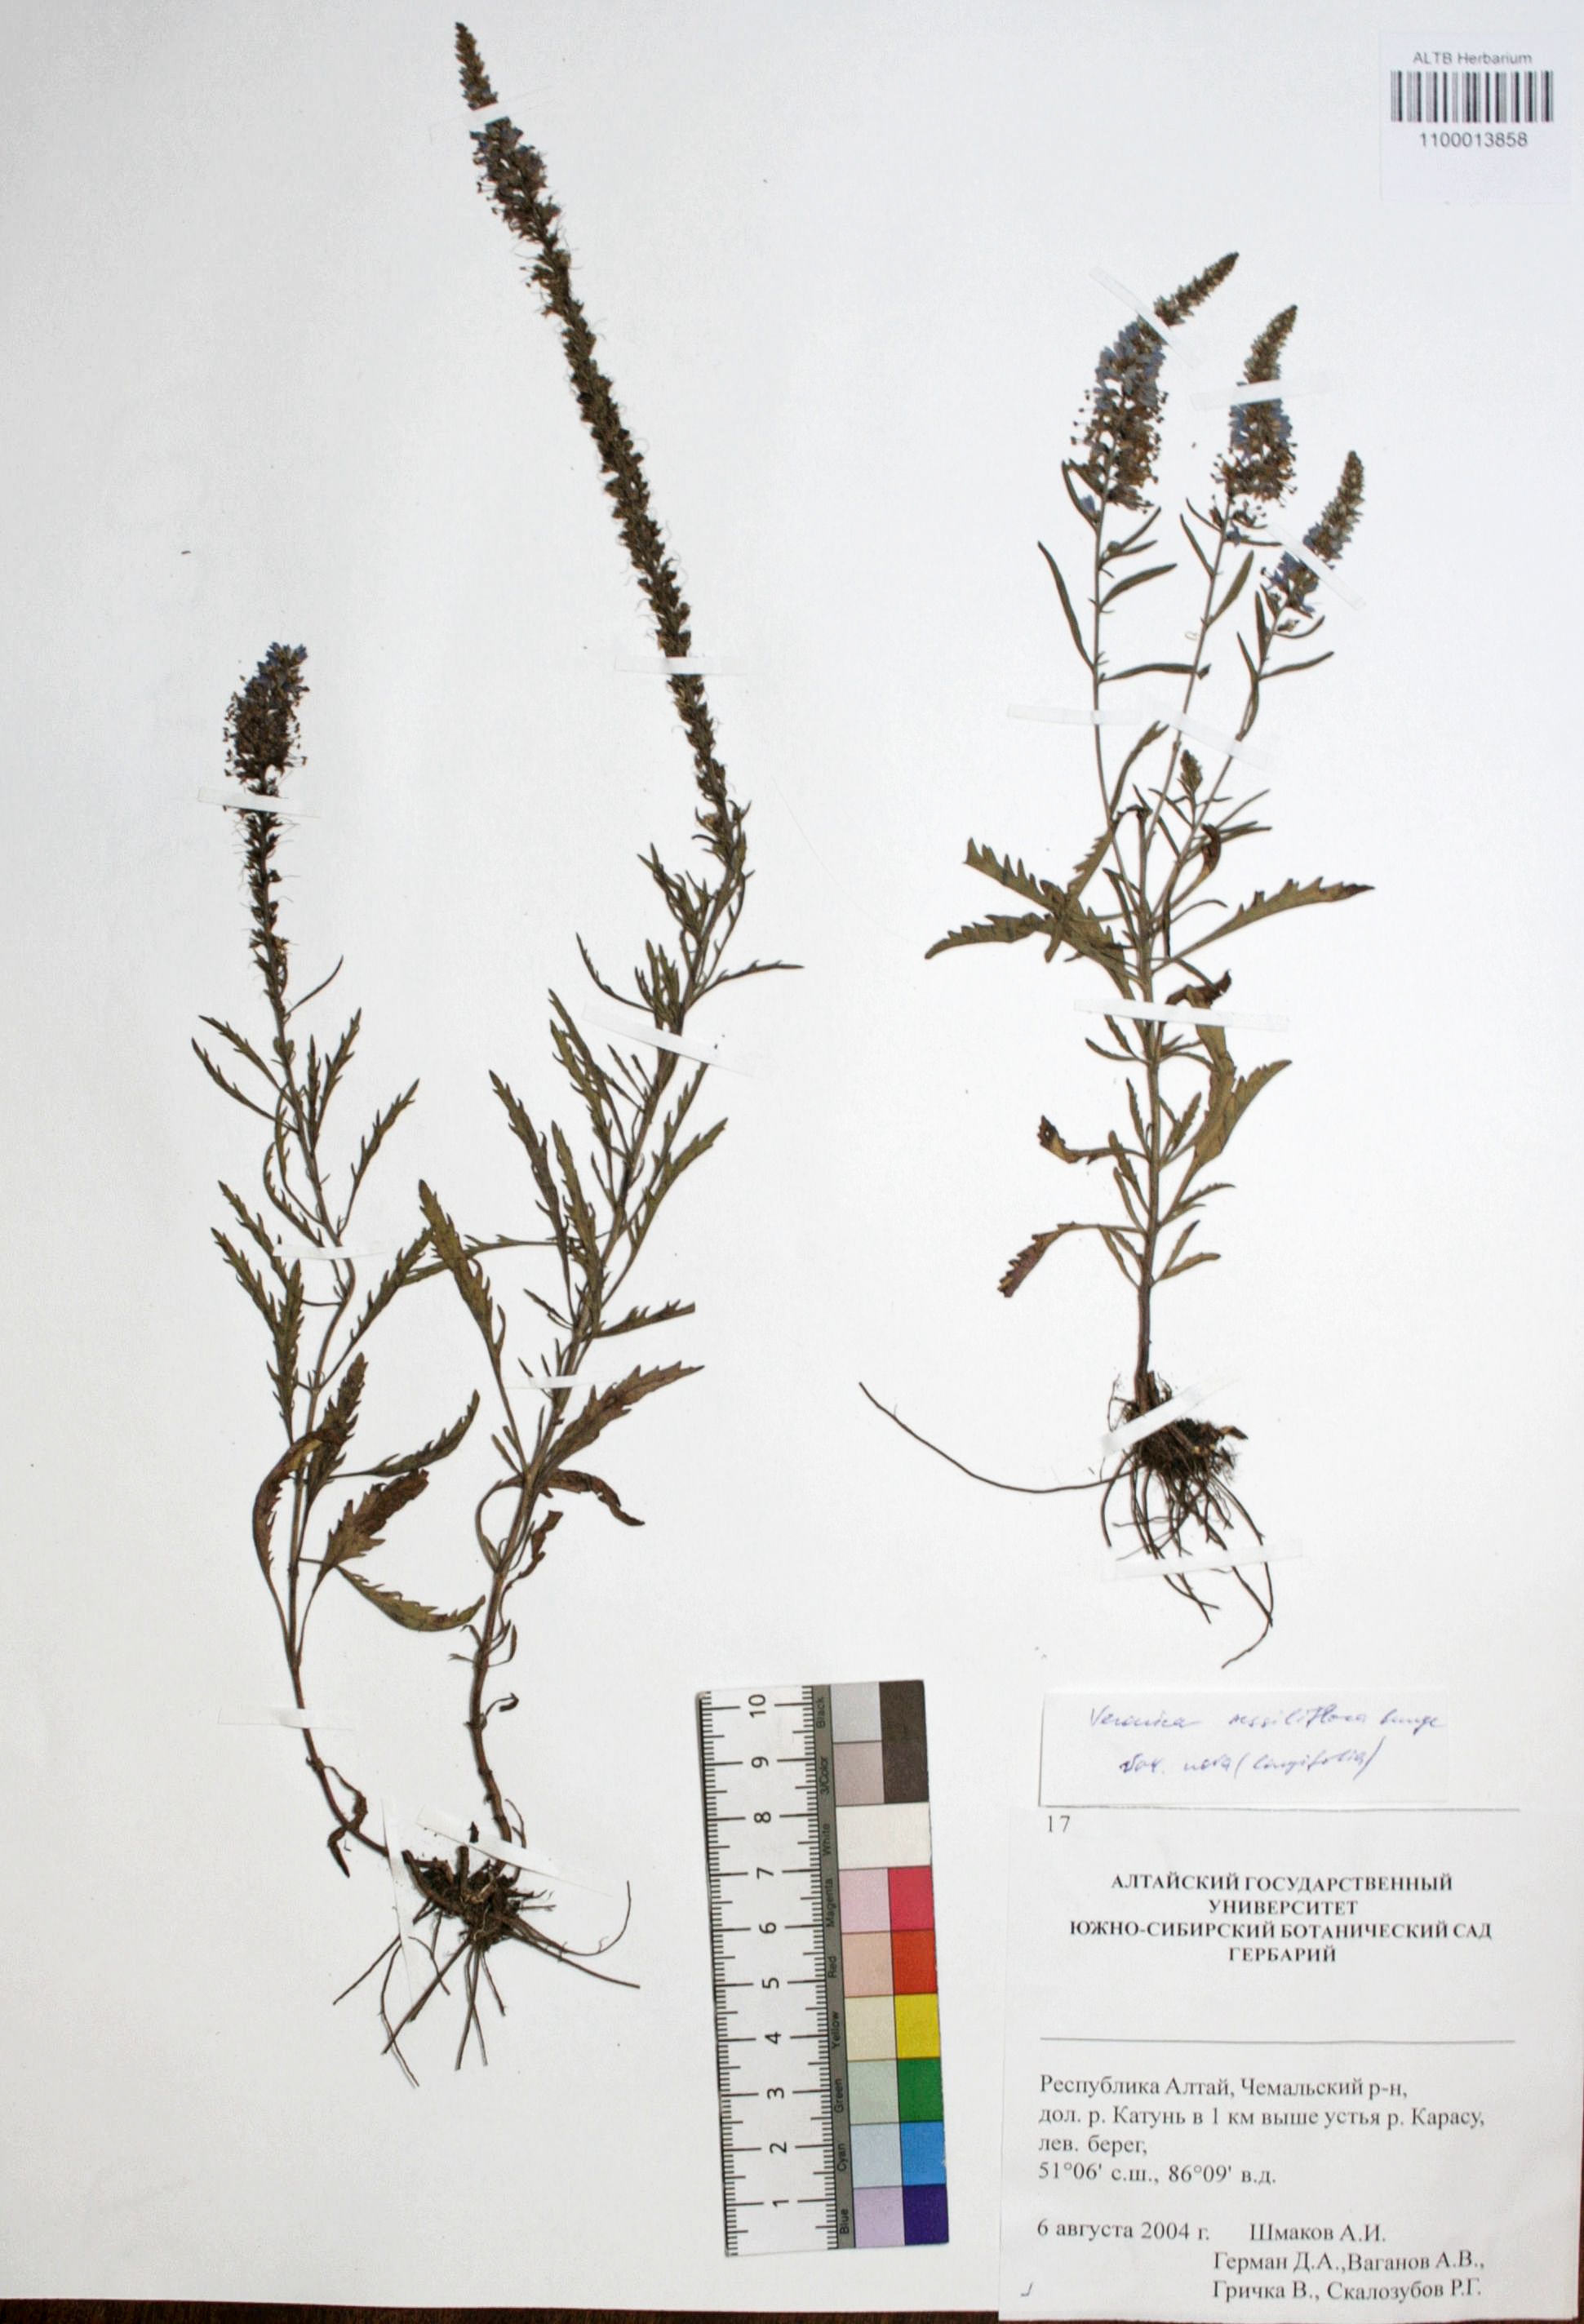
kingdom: Plantae
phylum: Tracheophyta
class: Magnoliopsida
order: Lamiales
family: Plantaginaceae
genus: Veronica
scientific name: Veronica sessiliflora
